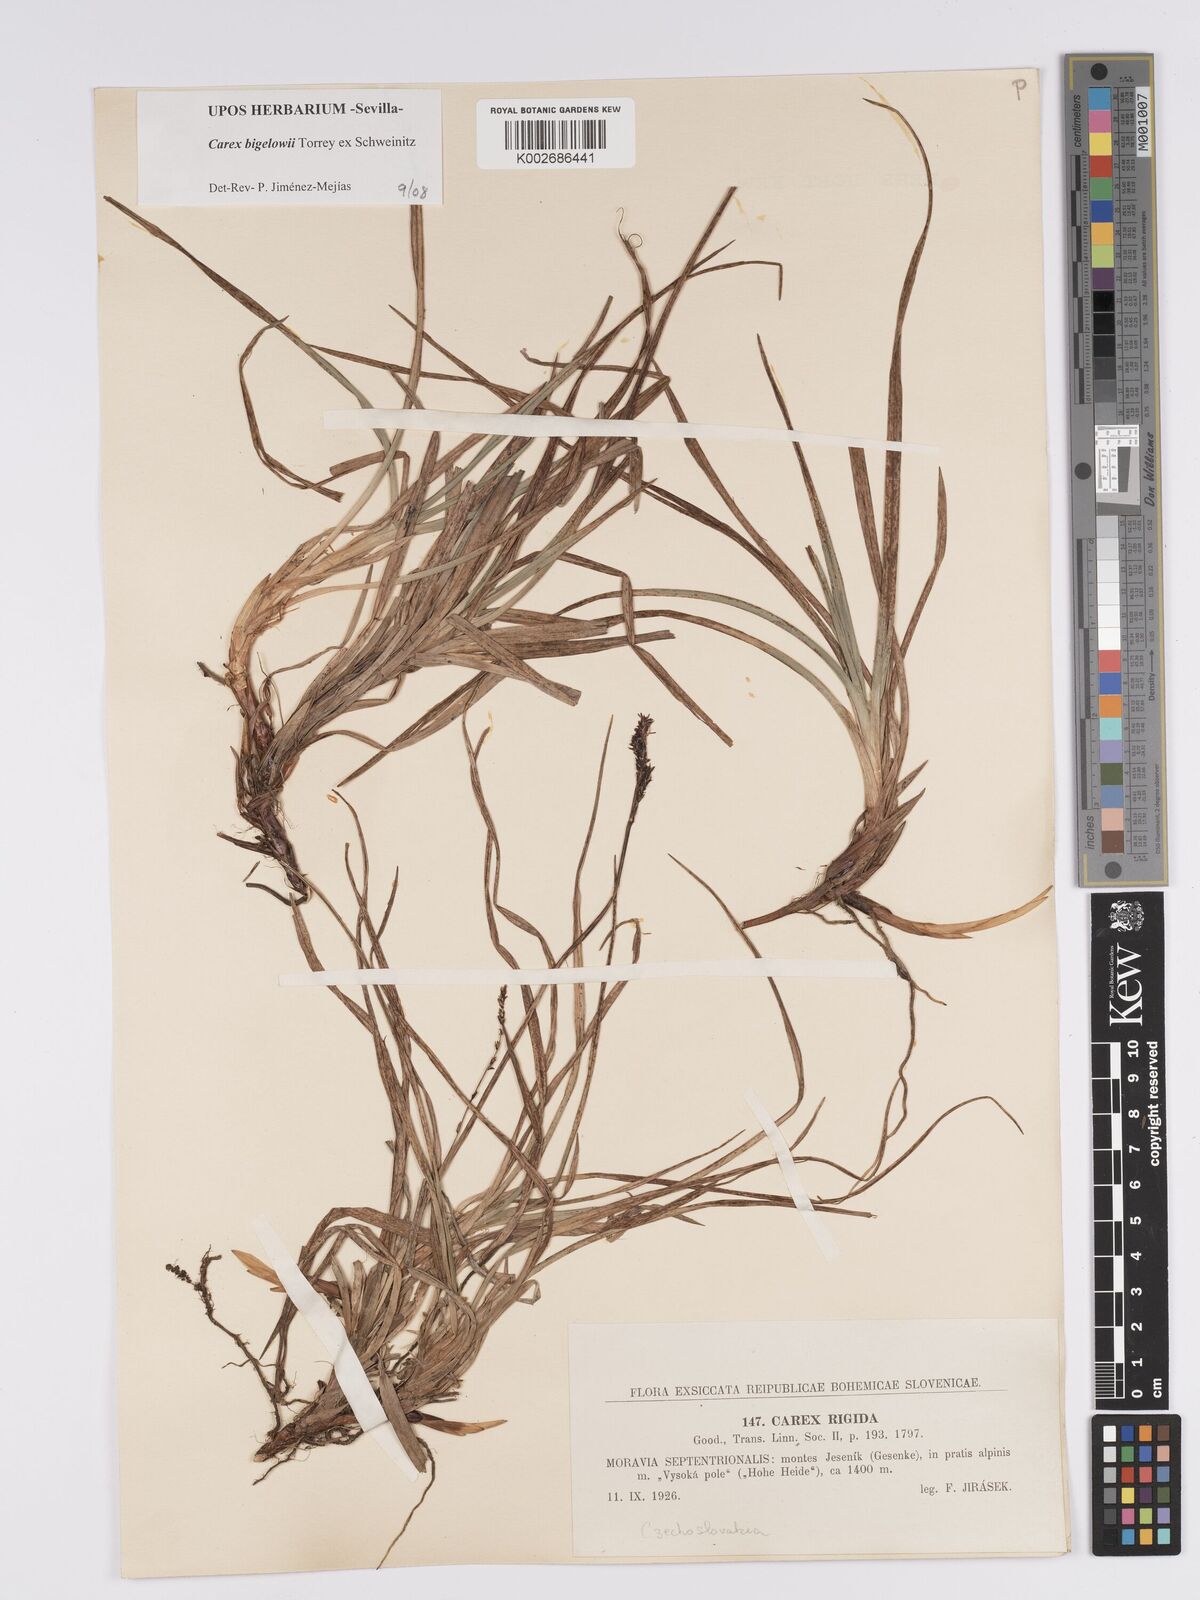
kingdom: Plantae
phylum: Tracheophyta
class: Liliopsida
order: Poales
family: Cyperaceae
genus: Carex
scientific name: Carex bigelowii
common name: Stiff sedge
